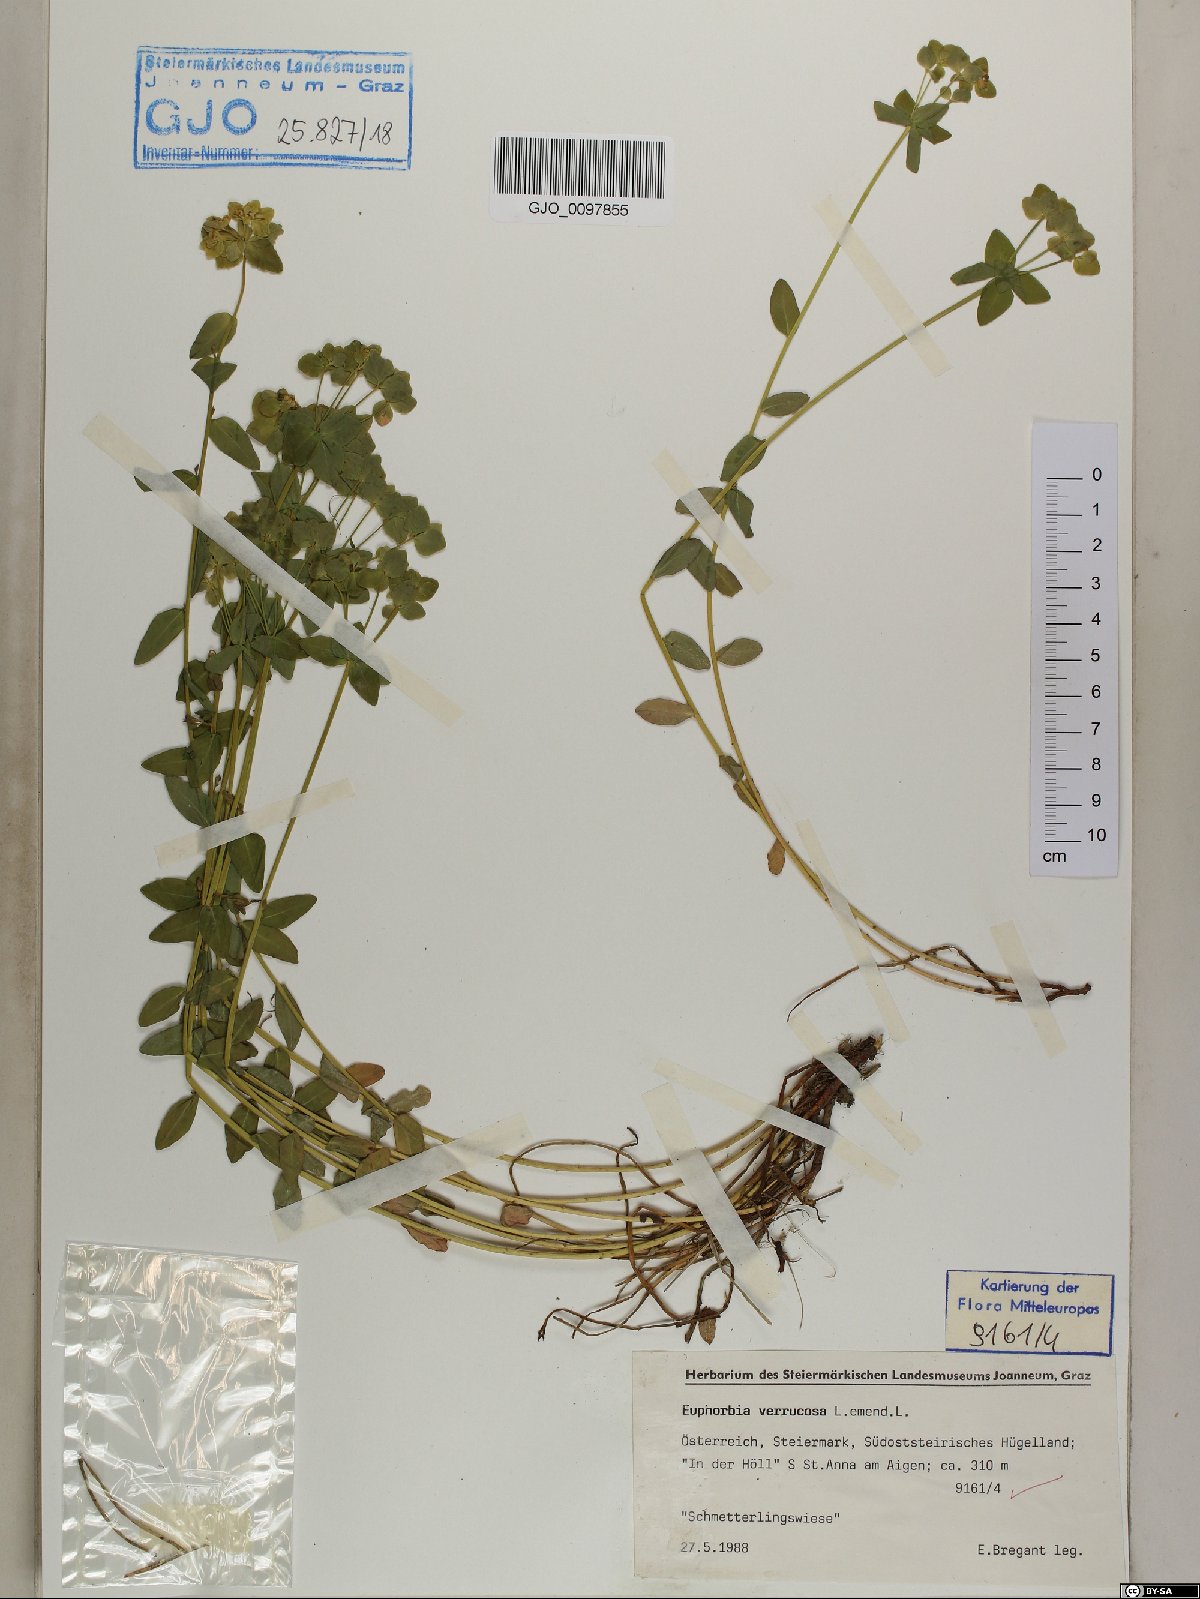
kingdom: Plantae
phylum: Tracheophyta
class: Magnoliopsida
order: Malpighiales
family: Euphorbiaceae
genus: Euphorbia
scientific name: Euphorbia verrucosa
